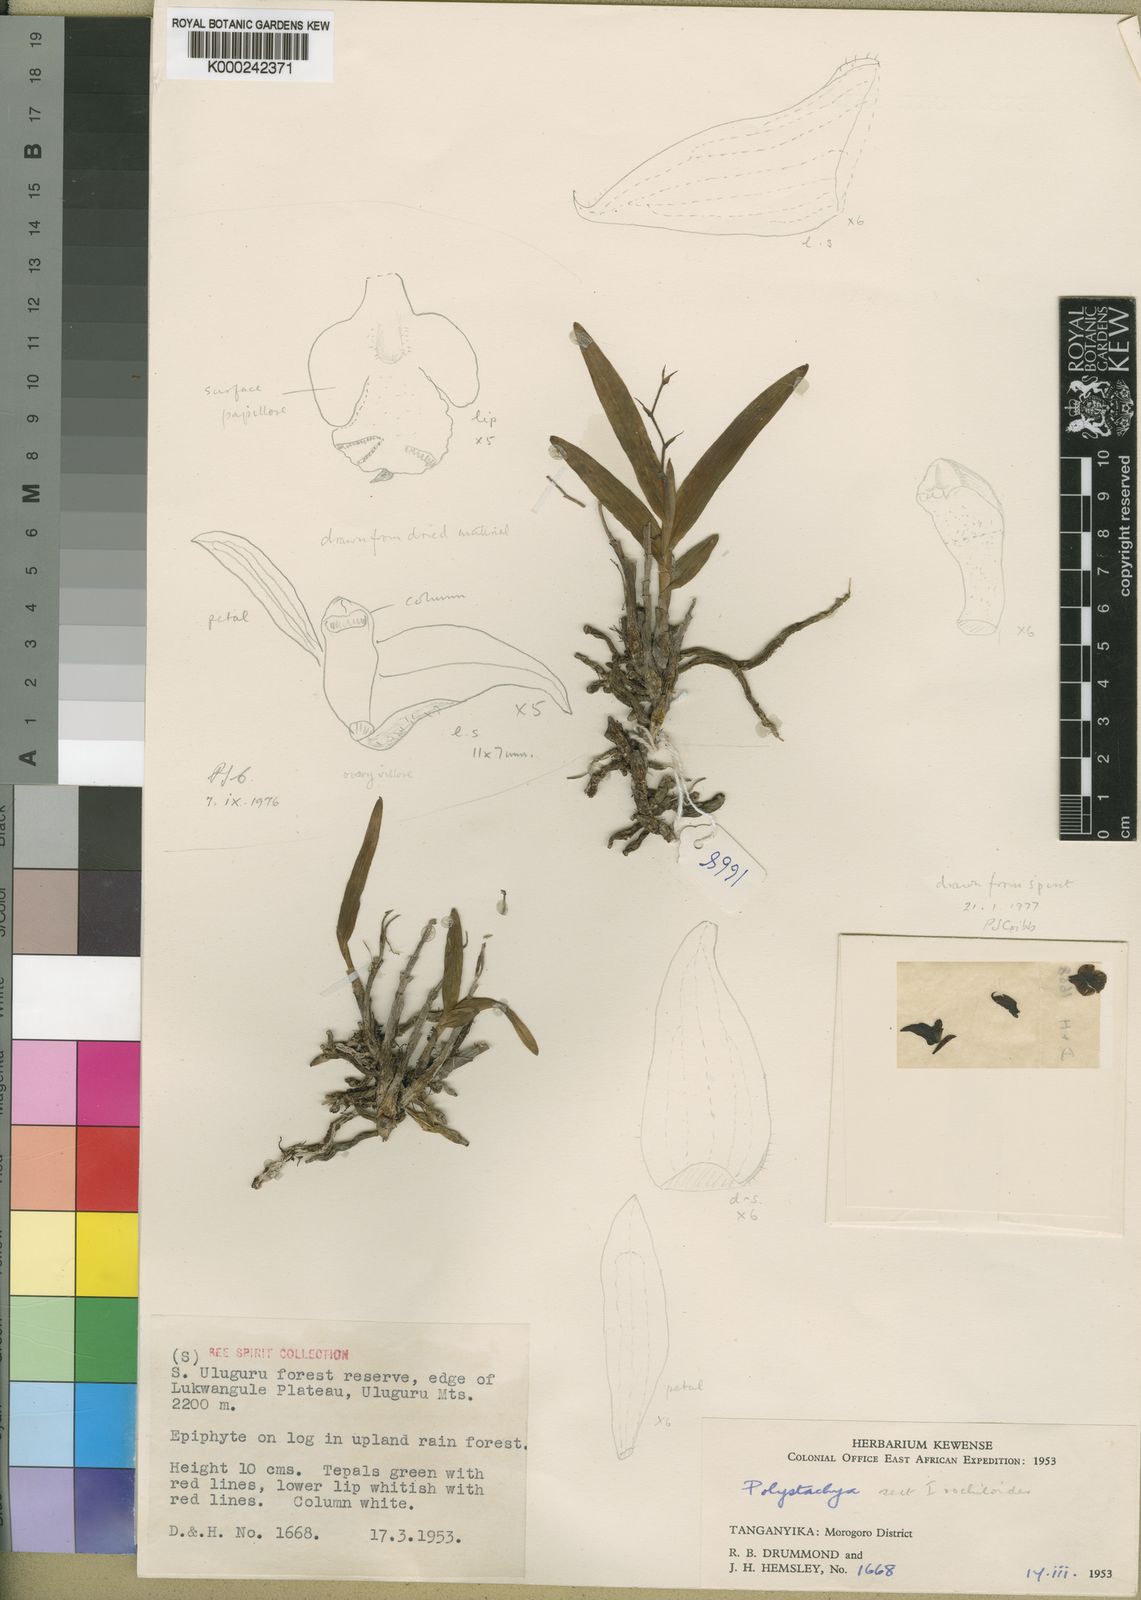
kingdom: Plantae
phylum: Tracheophyta
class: Liliopsida
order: Asparagales
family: Orchidaceae
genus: Polystachya
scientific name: Polystachya lukwangulensis
